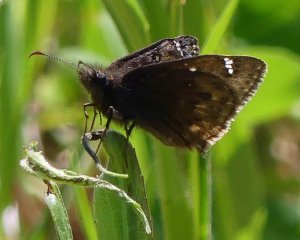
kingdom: Animalia
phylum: Arthropoda
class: Insecta
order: Lepidoptera
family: Hesperiidae
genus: Gesta
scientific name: Gesta
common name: Juvenal's Duskywing
